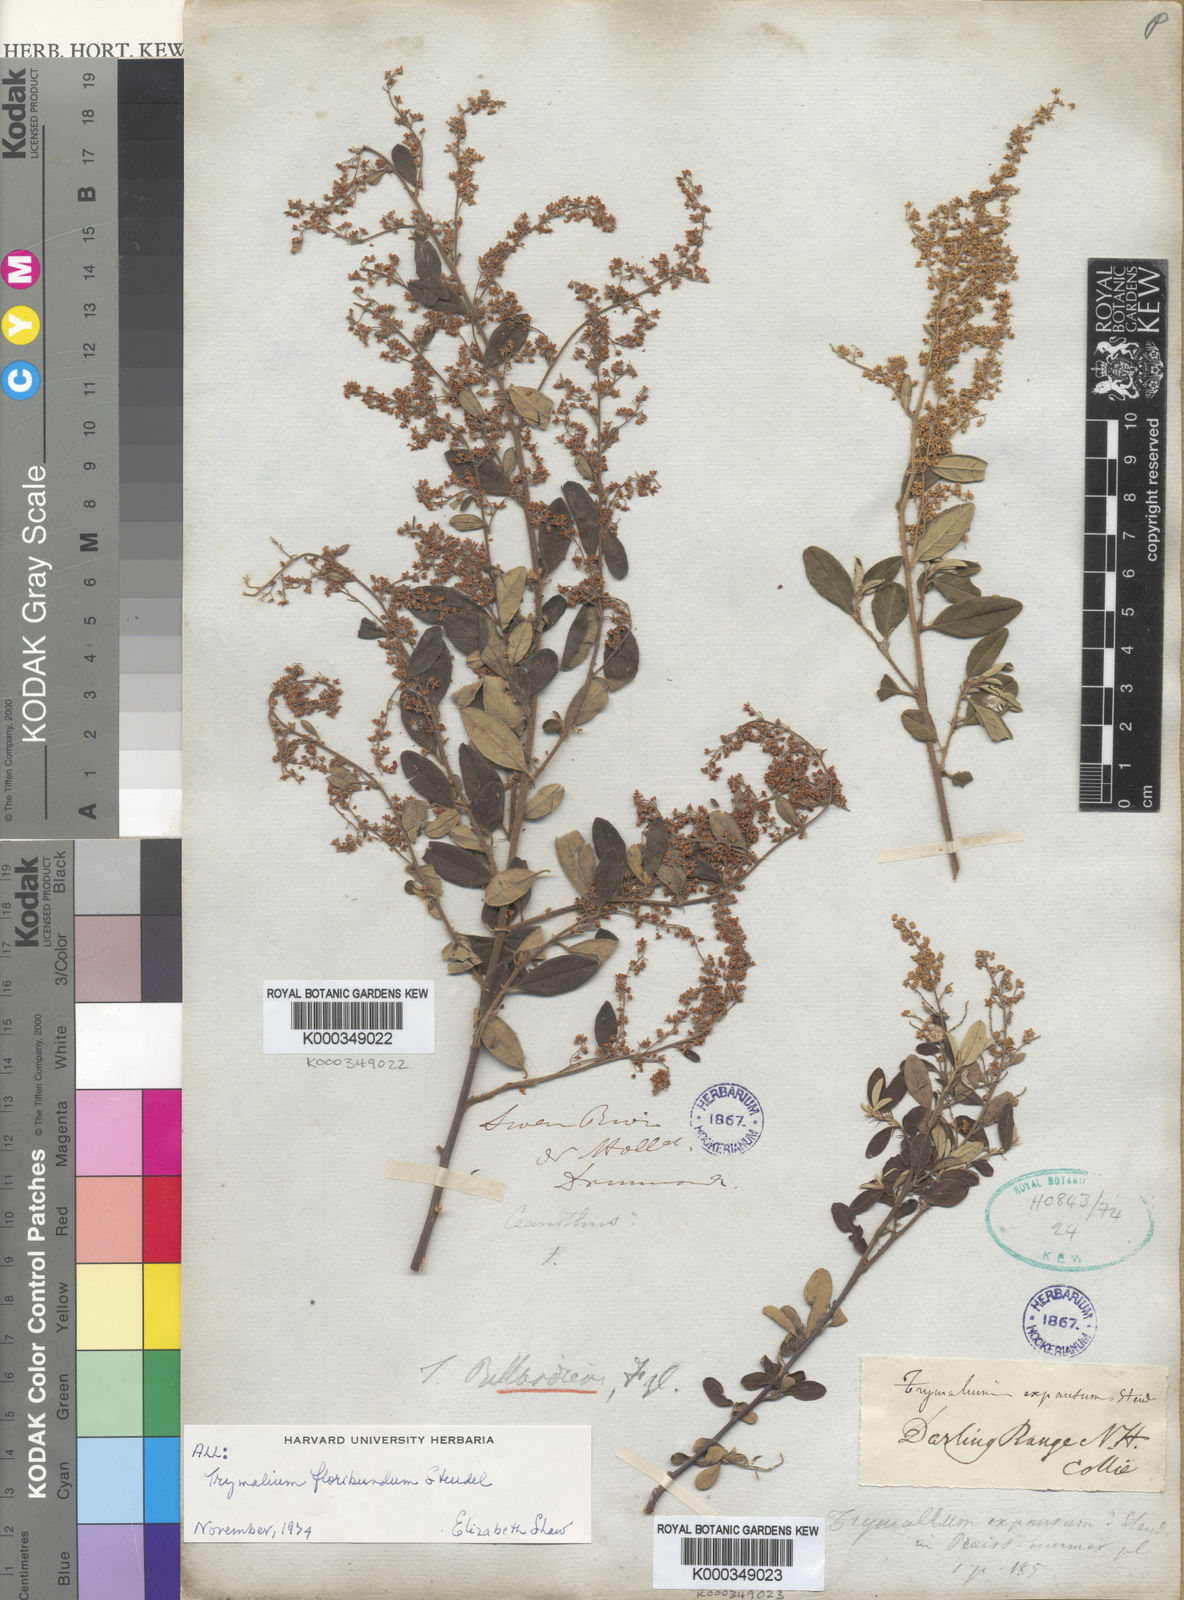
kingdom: Plantae
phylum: Tracheophyta
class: Magnoliopsida
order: Rosales
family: Rhamnaceae
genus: Trymalium
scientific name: Trymalium odoratissimum
